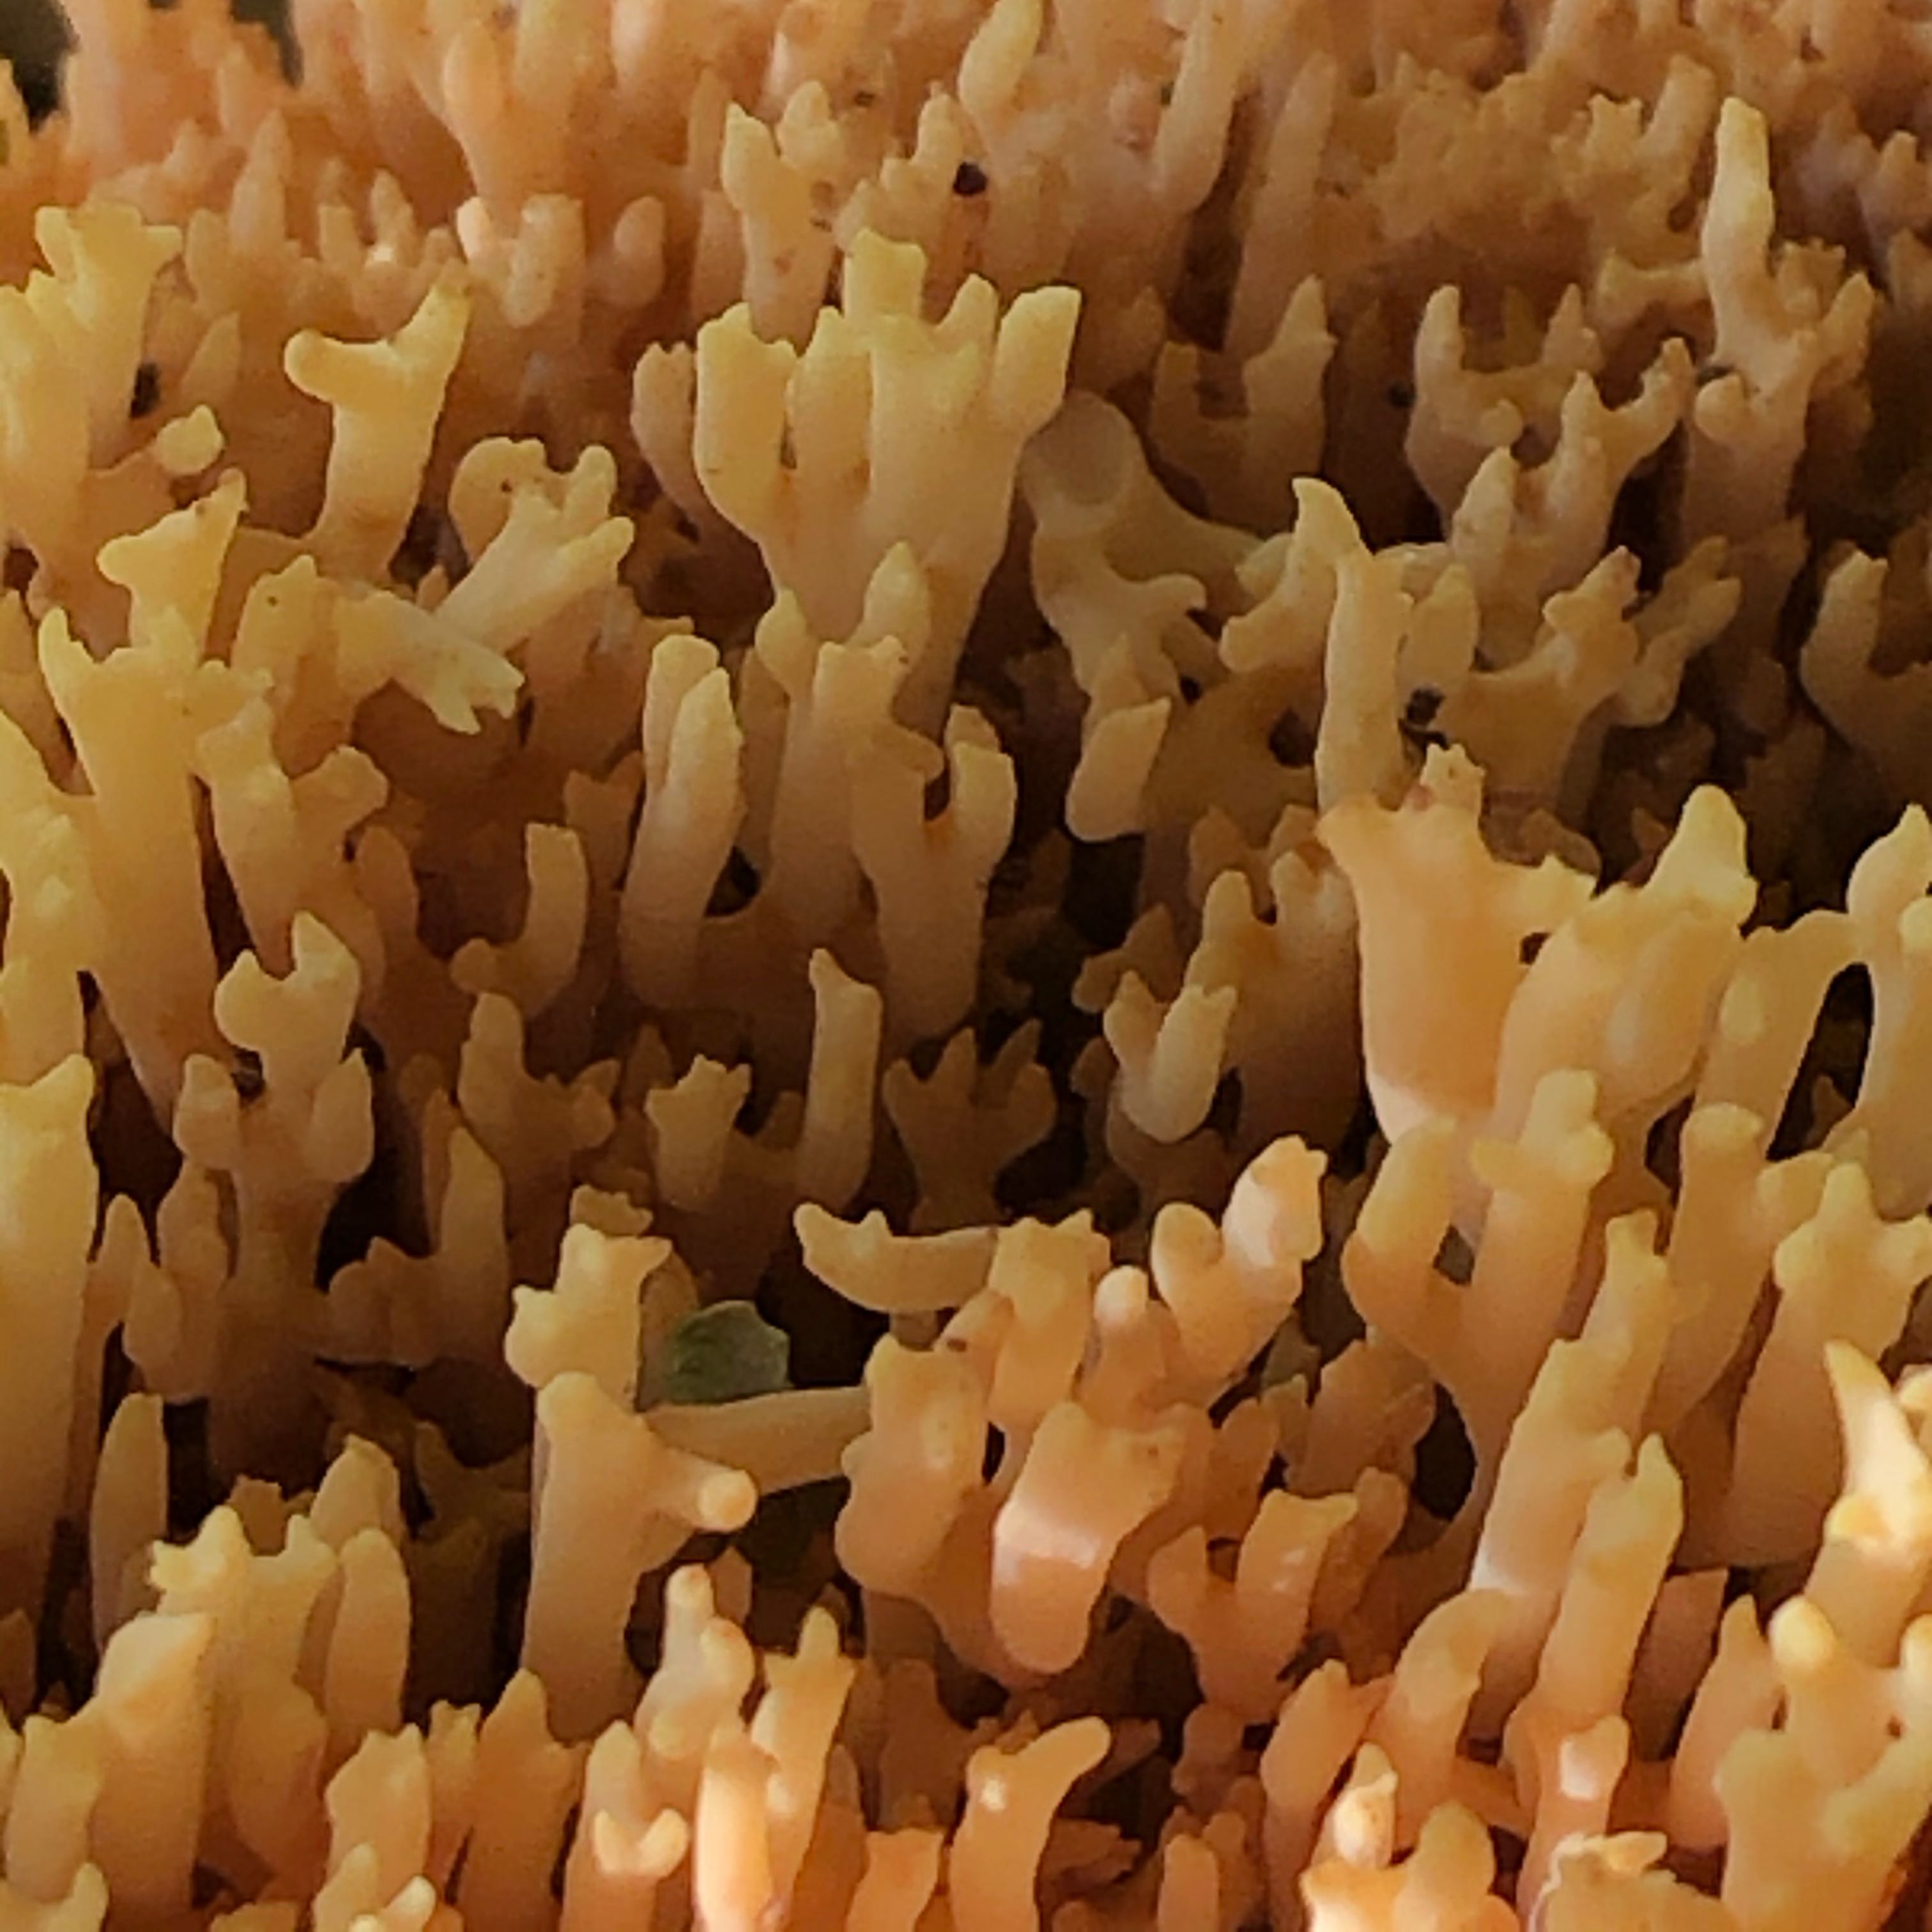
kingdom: Fungi
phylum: Basidiomycota
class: Agaricomycetes
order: Gomphales
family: Gomphaceae
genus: Ramaria
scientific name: Ramaria stricta
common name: rank koralsvamp
